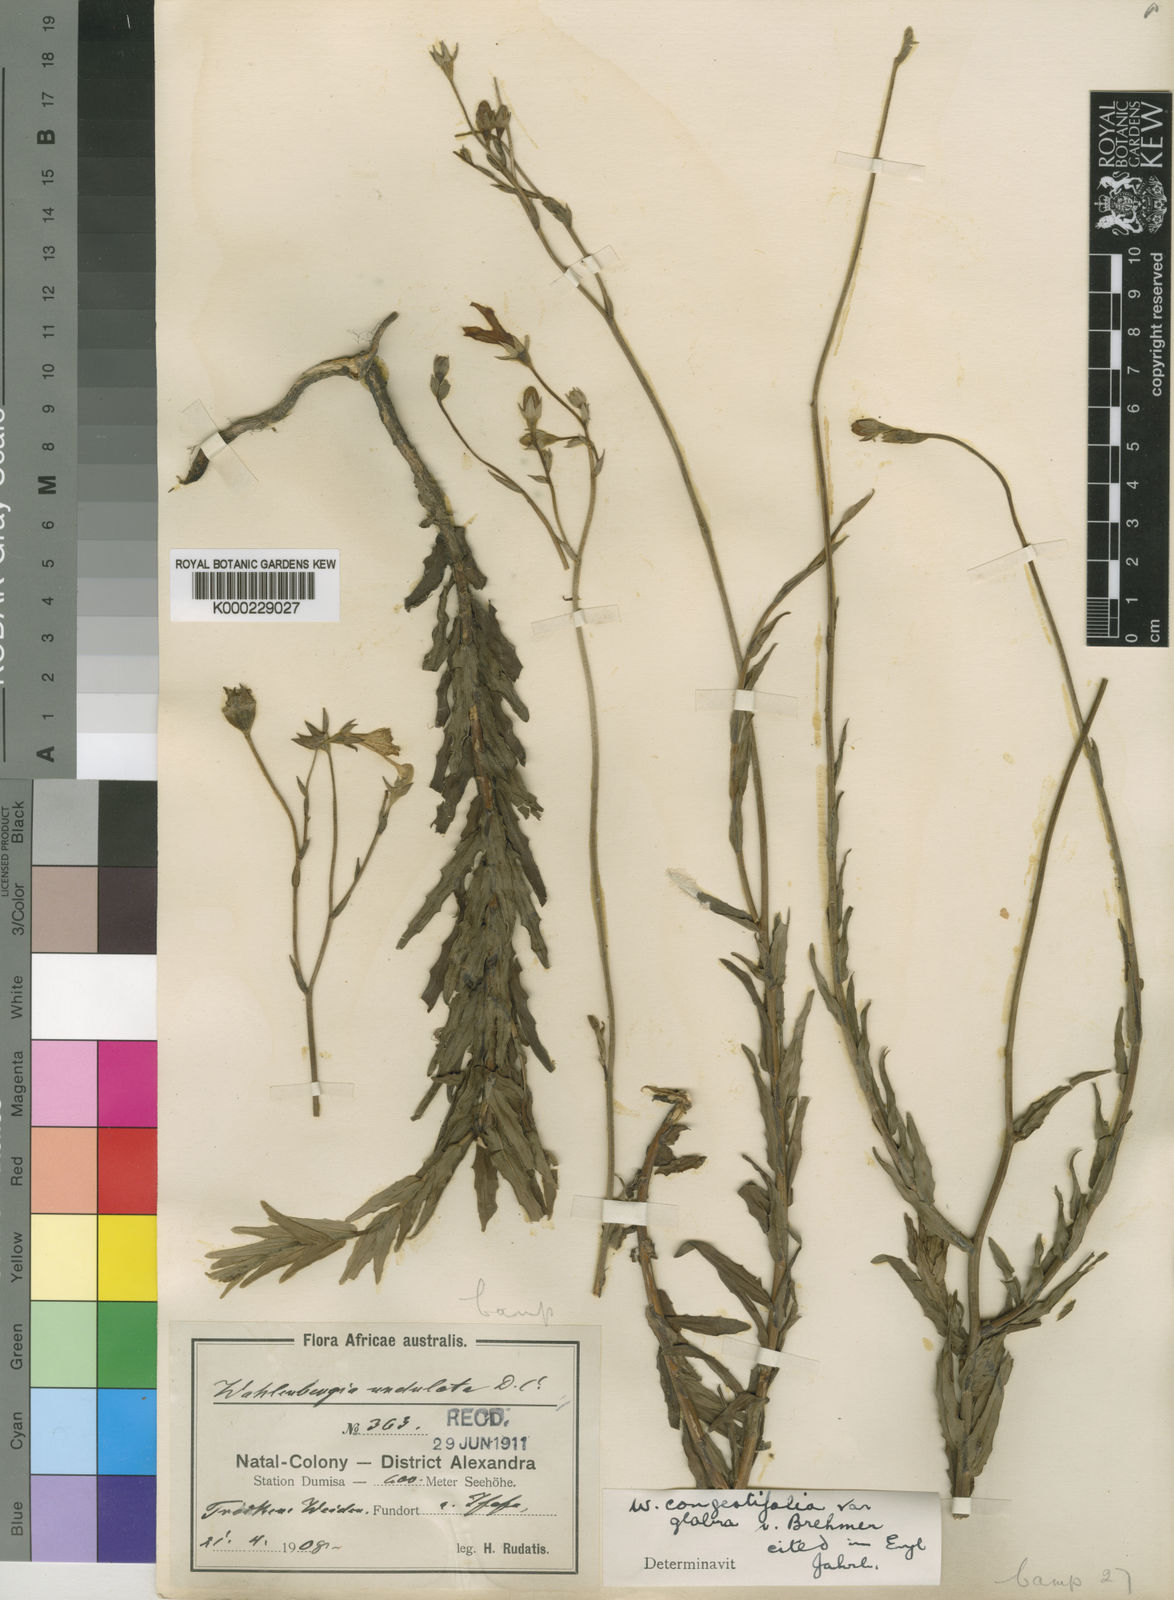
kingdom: Plantae
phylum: Tracheophyta
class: Magnoliopsida
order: Asterales
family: Campanulaceae
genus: Wahlenbergia
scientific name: Wahlenbergia congestifolia
